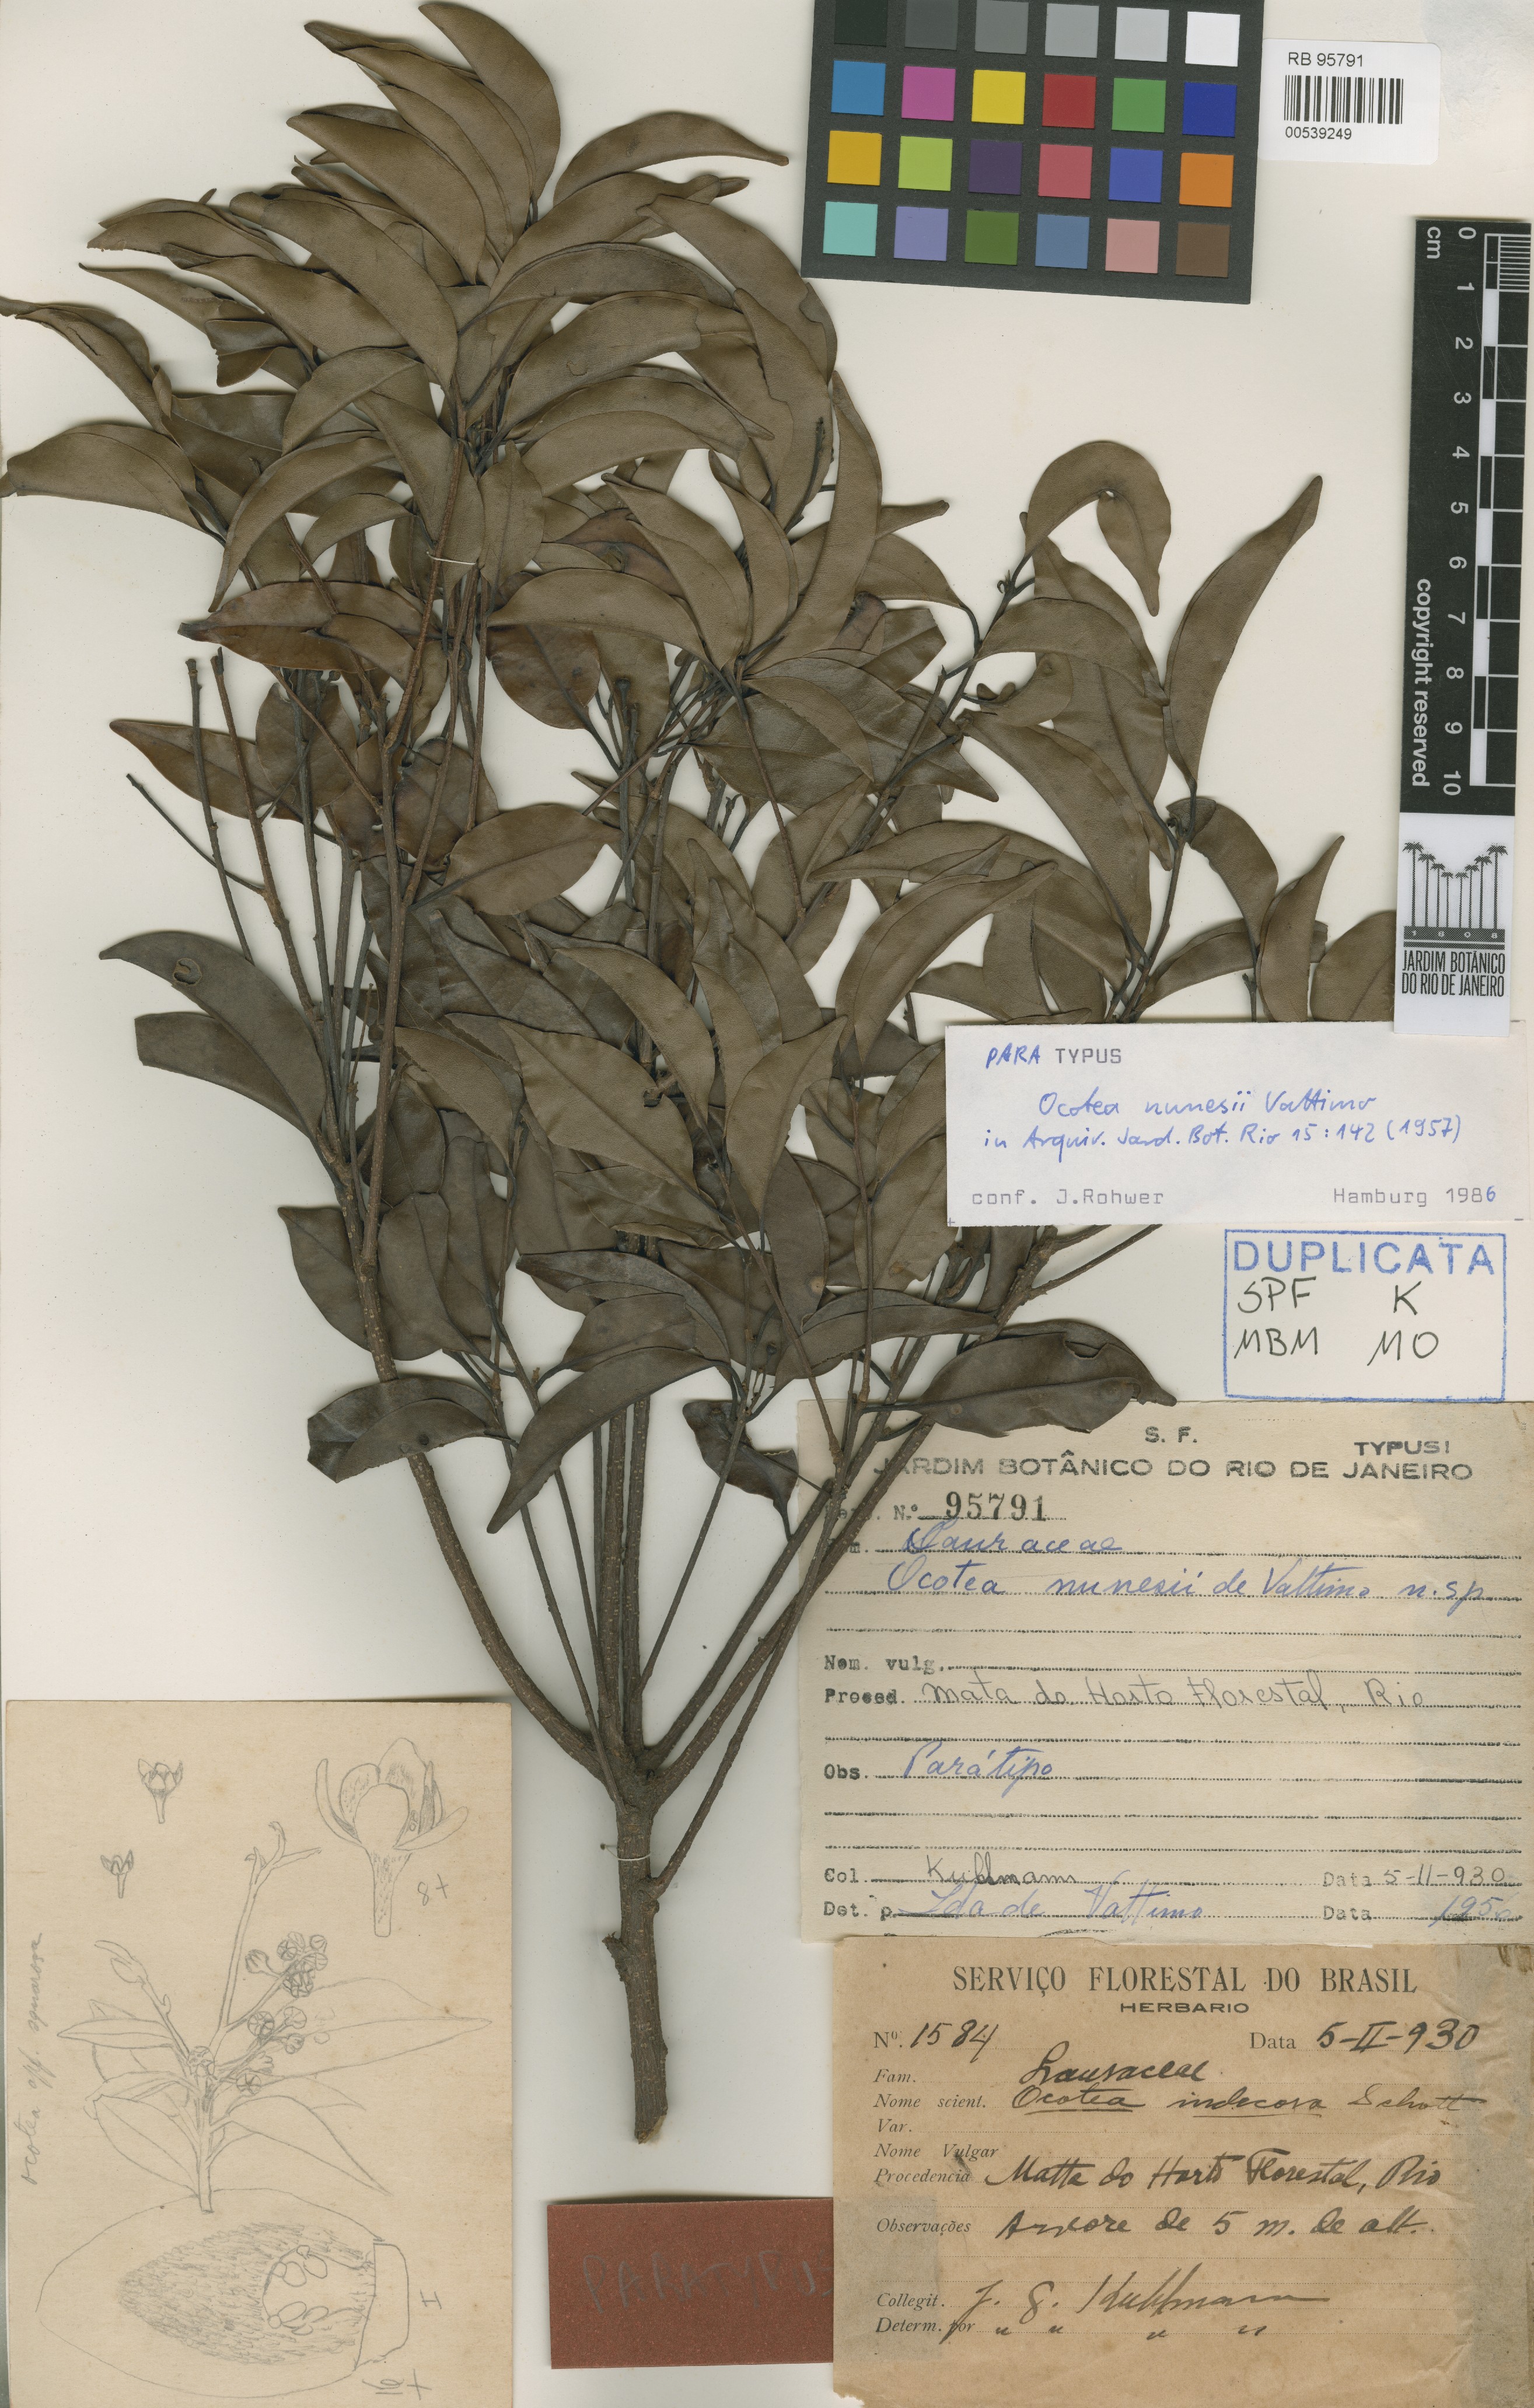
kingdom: Plantae
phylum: Tracheophyta
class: Magnoliopsida
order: Laurales
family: Lauraceae
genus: Mespilodaphne
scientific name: Mespilodaphne fasciculata
